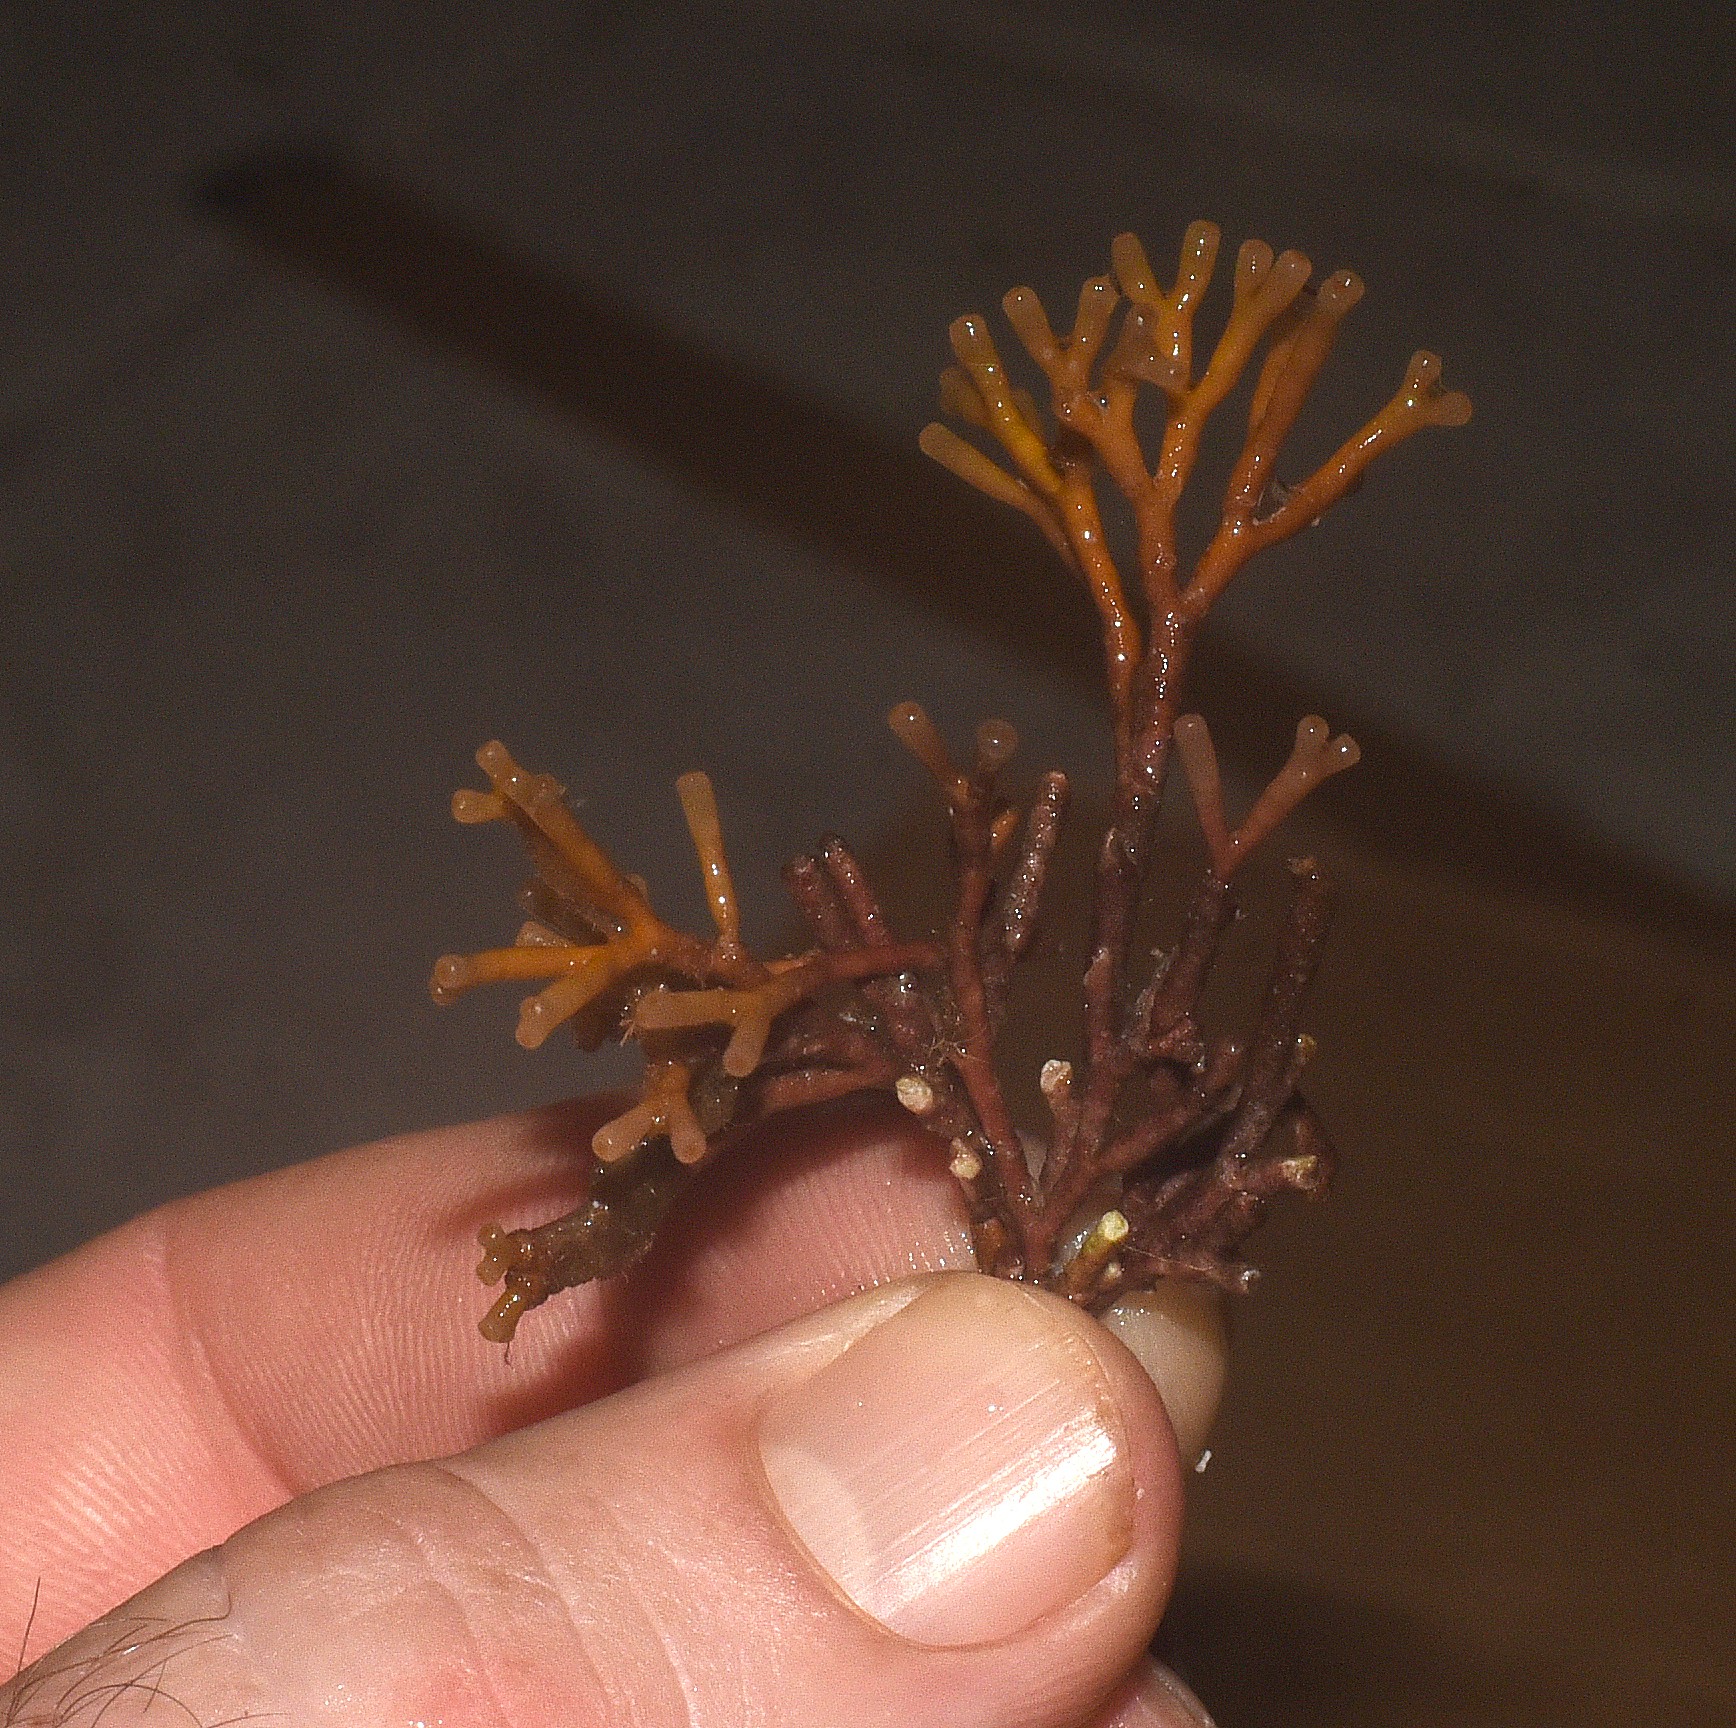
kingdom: Plantae
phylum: Rhodophyta
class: Florideophyceae
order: Nemaliales
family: Galaxauraceae
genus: Galaxaura
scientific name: Galaxaura rugosa
